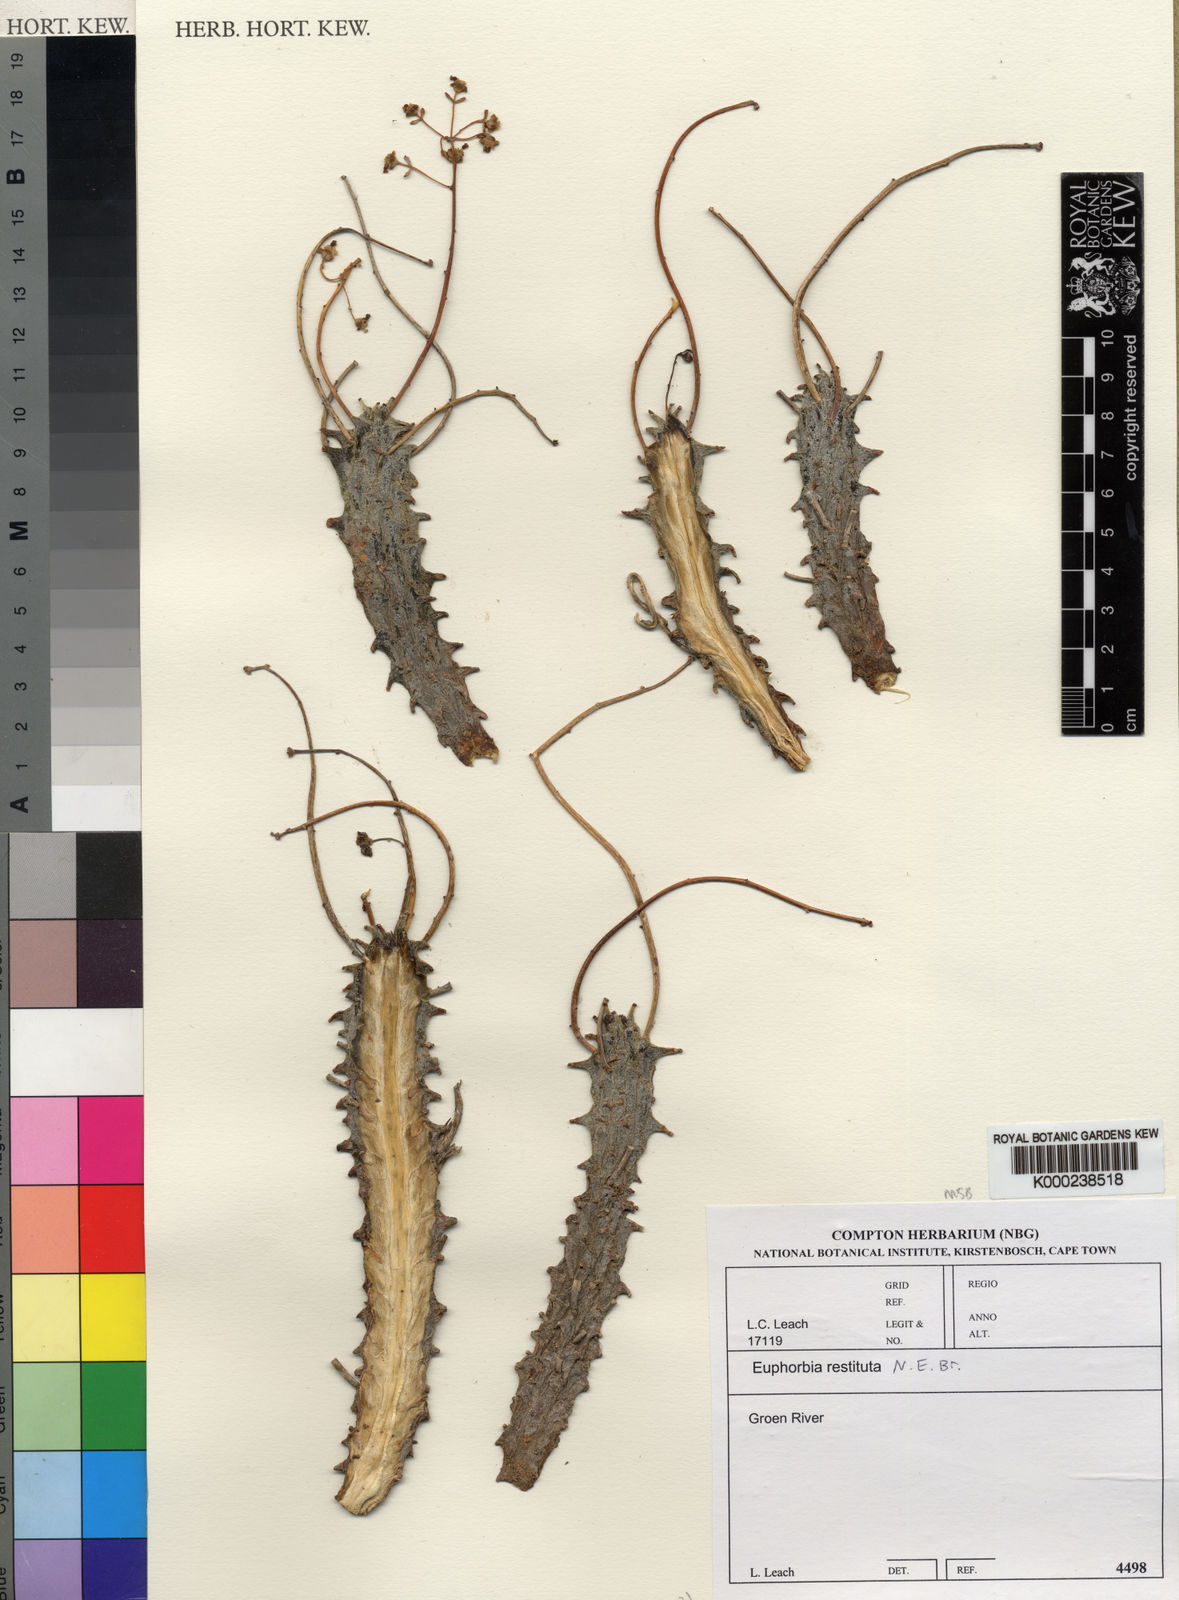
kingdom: Plantae
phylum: Tracheophyta
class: Magnoliopsida
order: Malpighiales
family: Euphorbiaceae
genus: Euphorbia
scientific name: Euphorbia restituta
